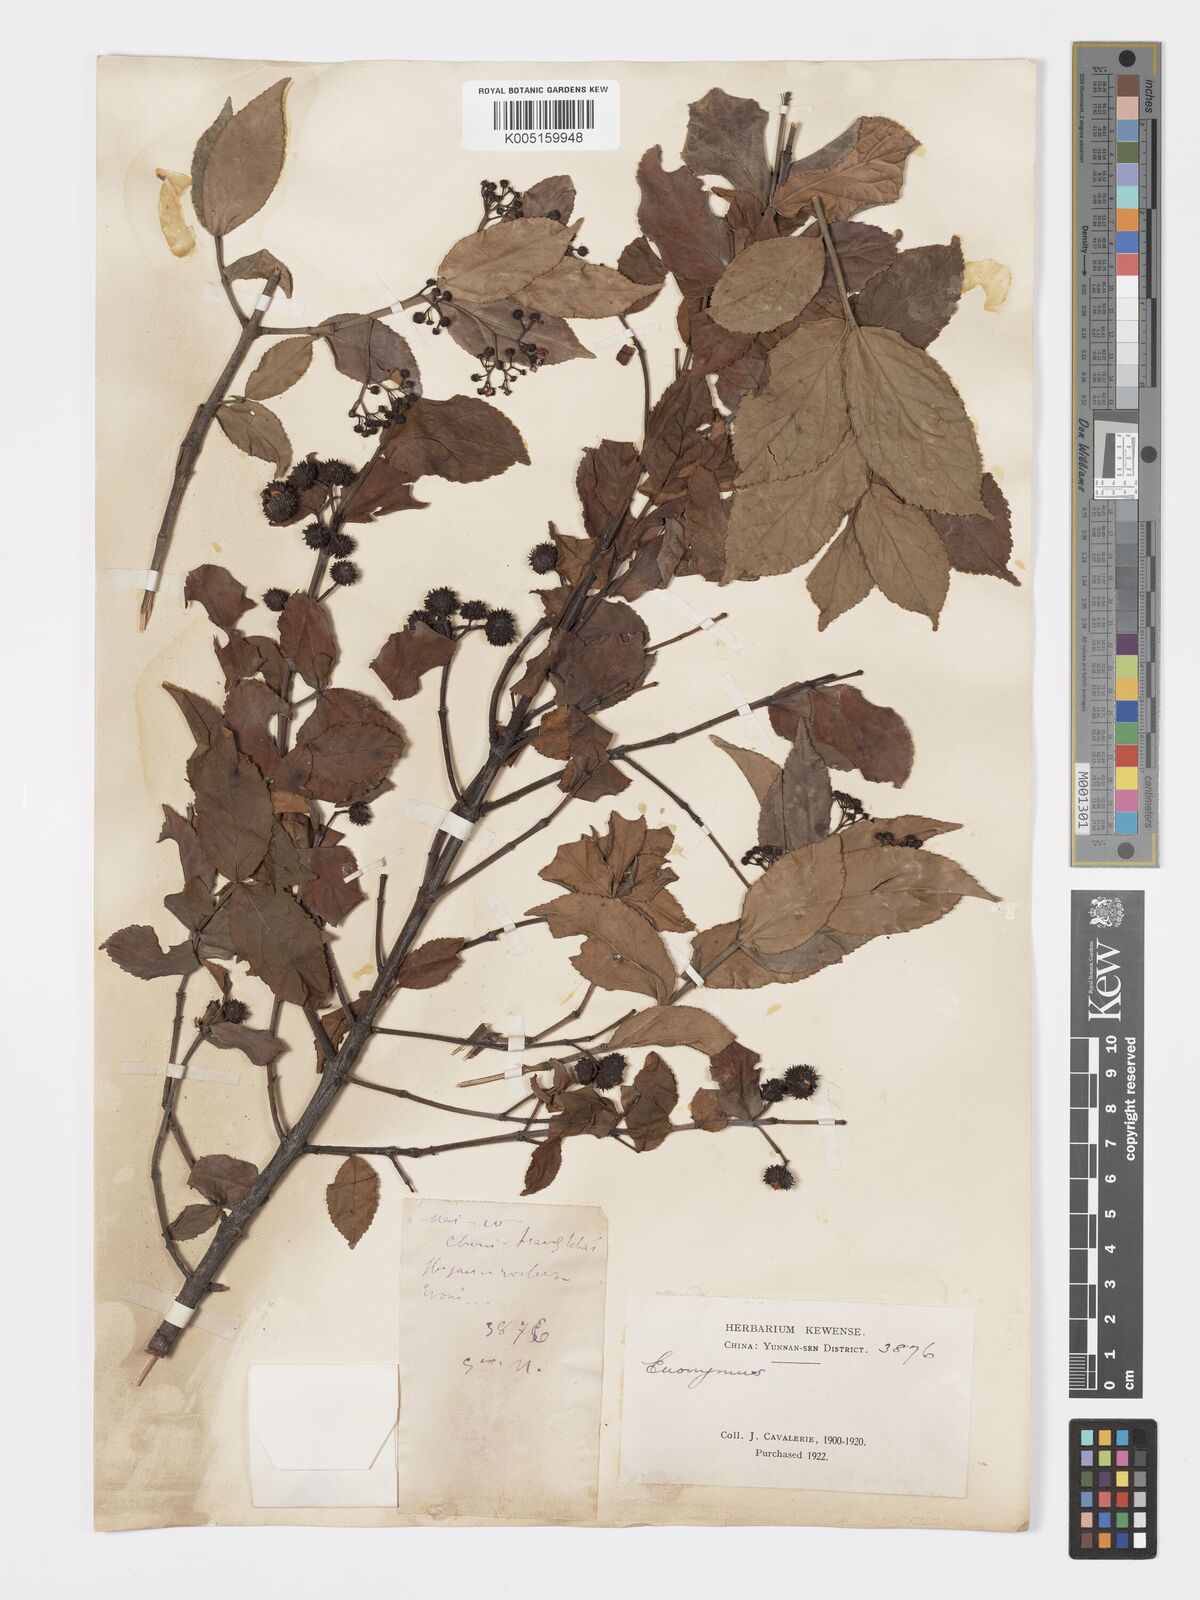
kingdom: Plantae
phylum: Tracheophyta
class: Magnoliopsida
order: Celastrales
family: Celastraceae
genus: Euonymus
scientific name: Euonymus echinatus
